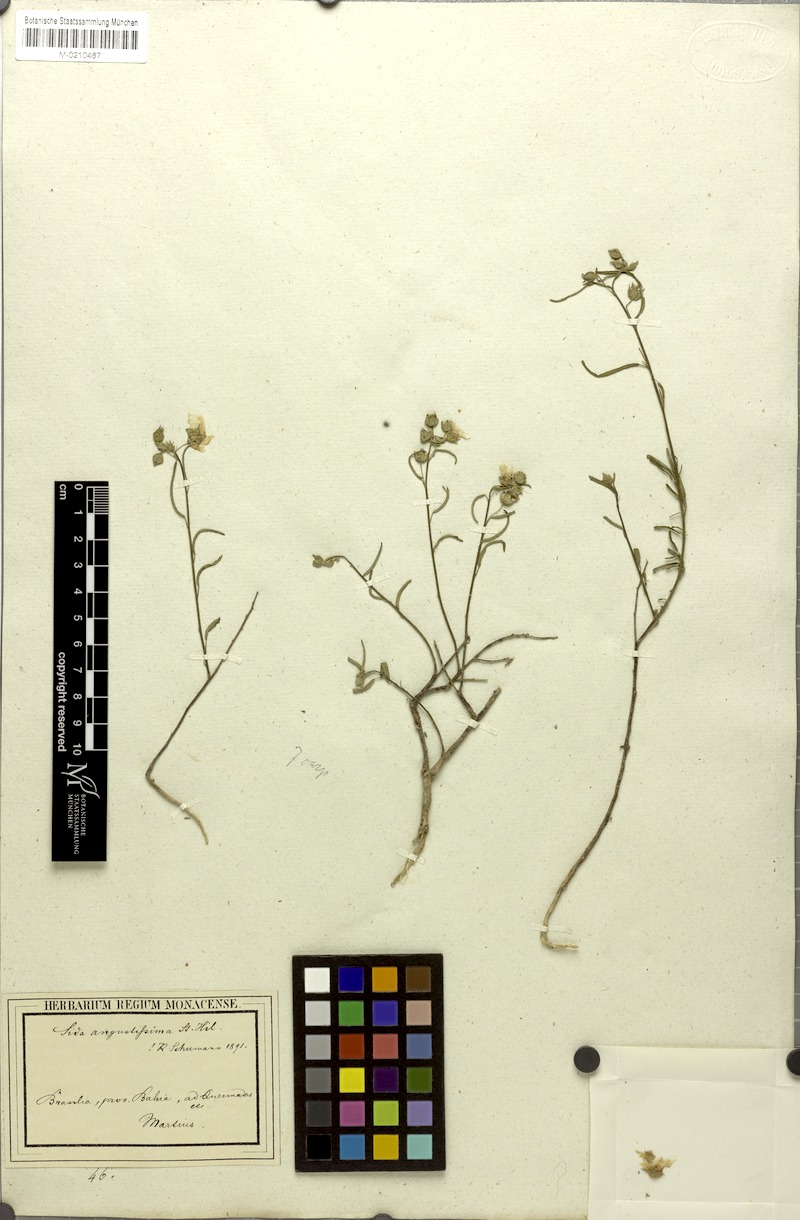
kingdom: Plantae
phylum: Tracheophyta
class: Magnoliopsida
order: Malvales
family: Malvaceae
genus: Sida
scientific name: Sida angustissima
